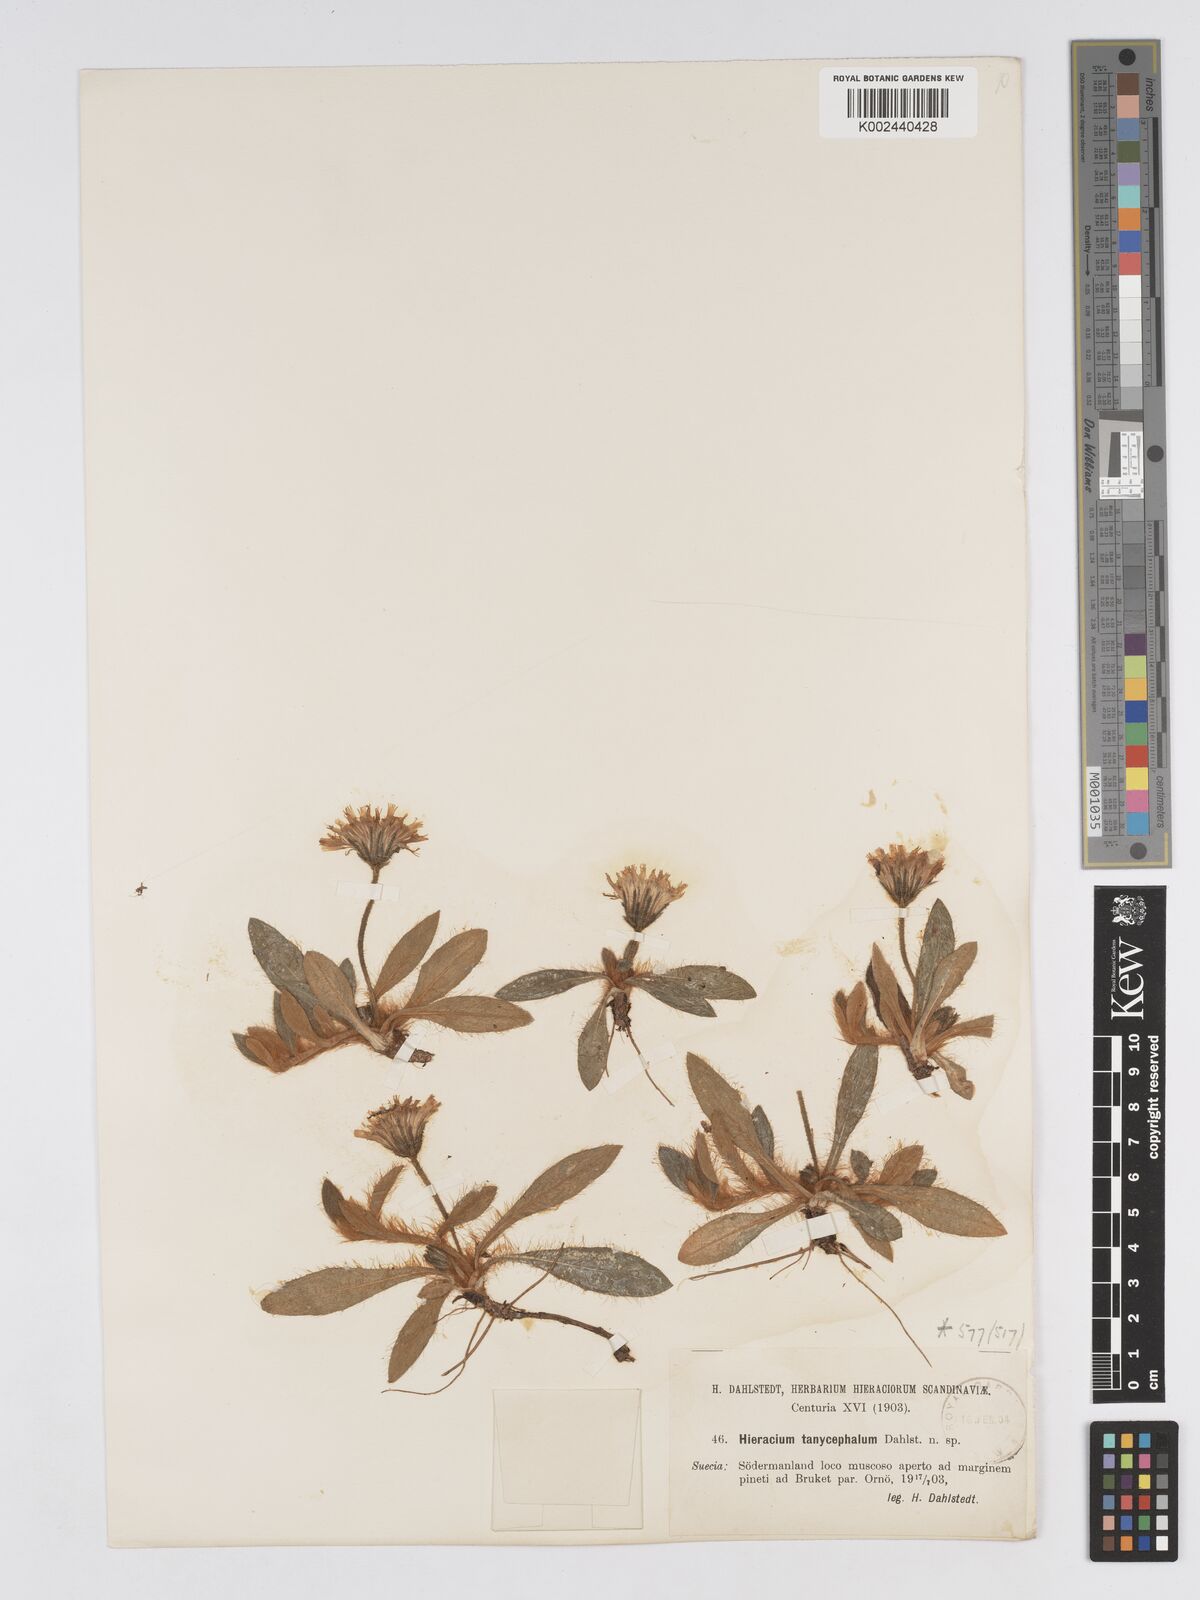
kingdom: Plantae
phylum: Tracheophyta
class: Magnoliopsida
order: Asterales
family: Asteraceae
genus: Hieracium
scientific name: Hieracium
